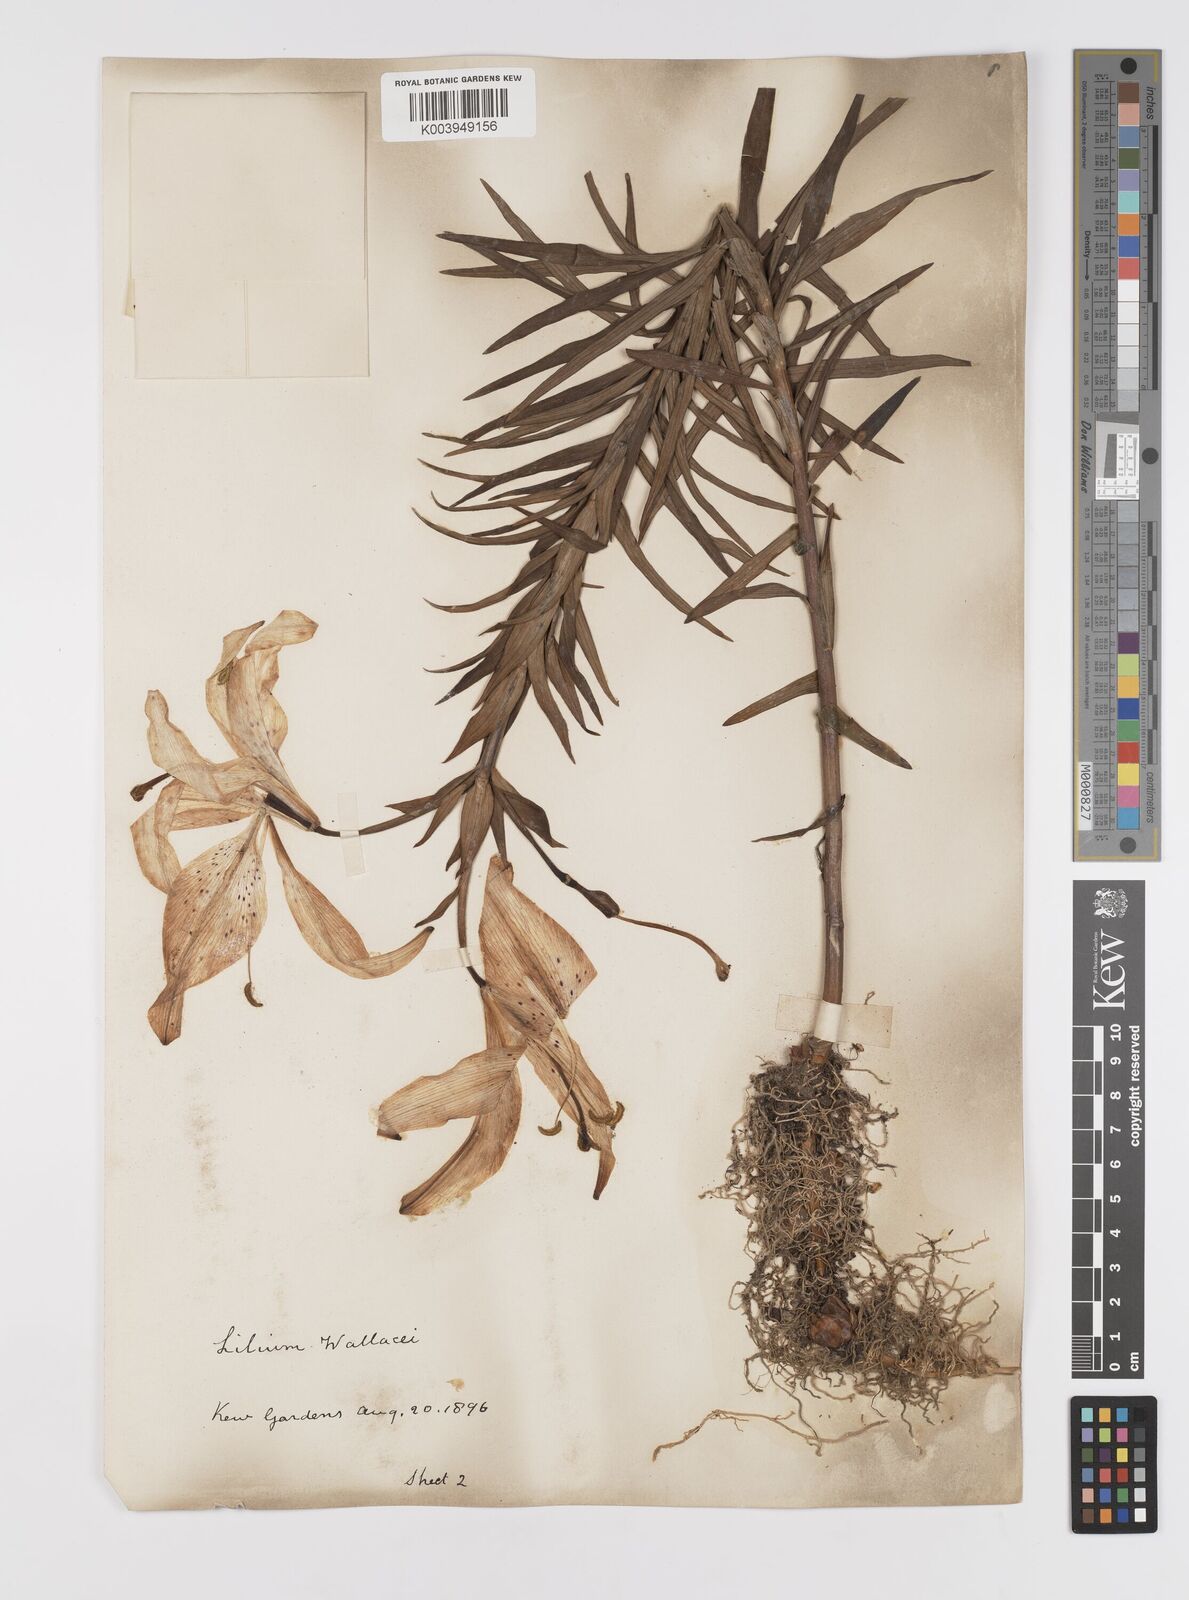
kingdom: Plantae
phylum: Tracheophyta
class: Liliopsida
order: Liliales
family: Liliaceae
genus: Lilium
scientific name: Lilium pensylvanicum
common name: Candlestick lily
